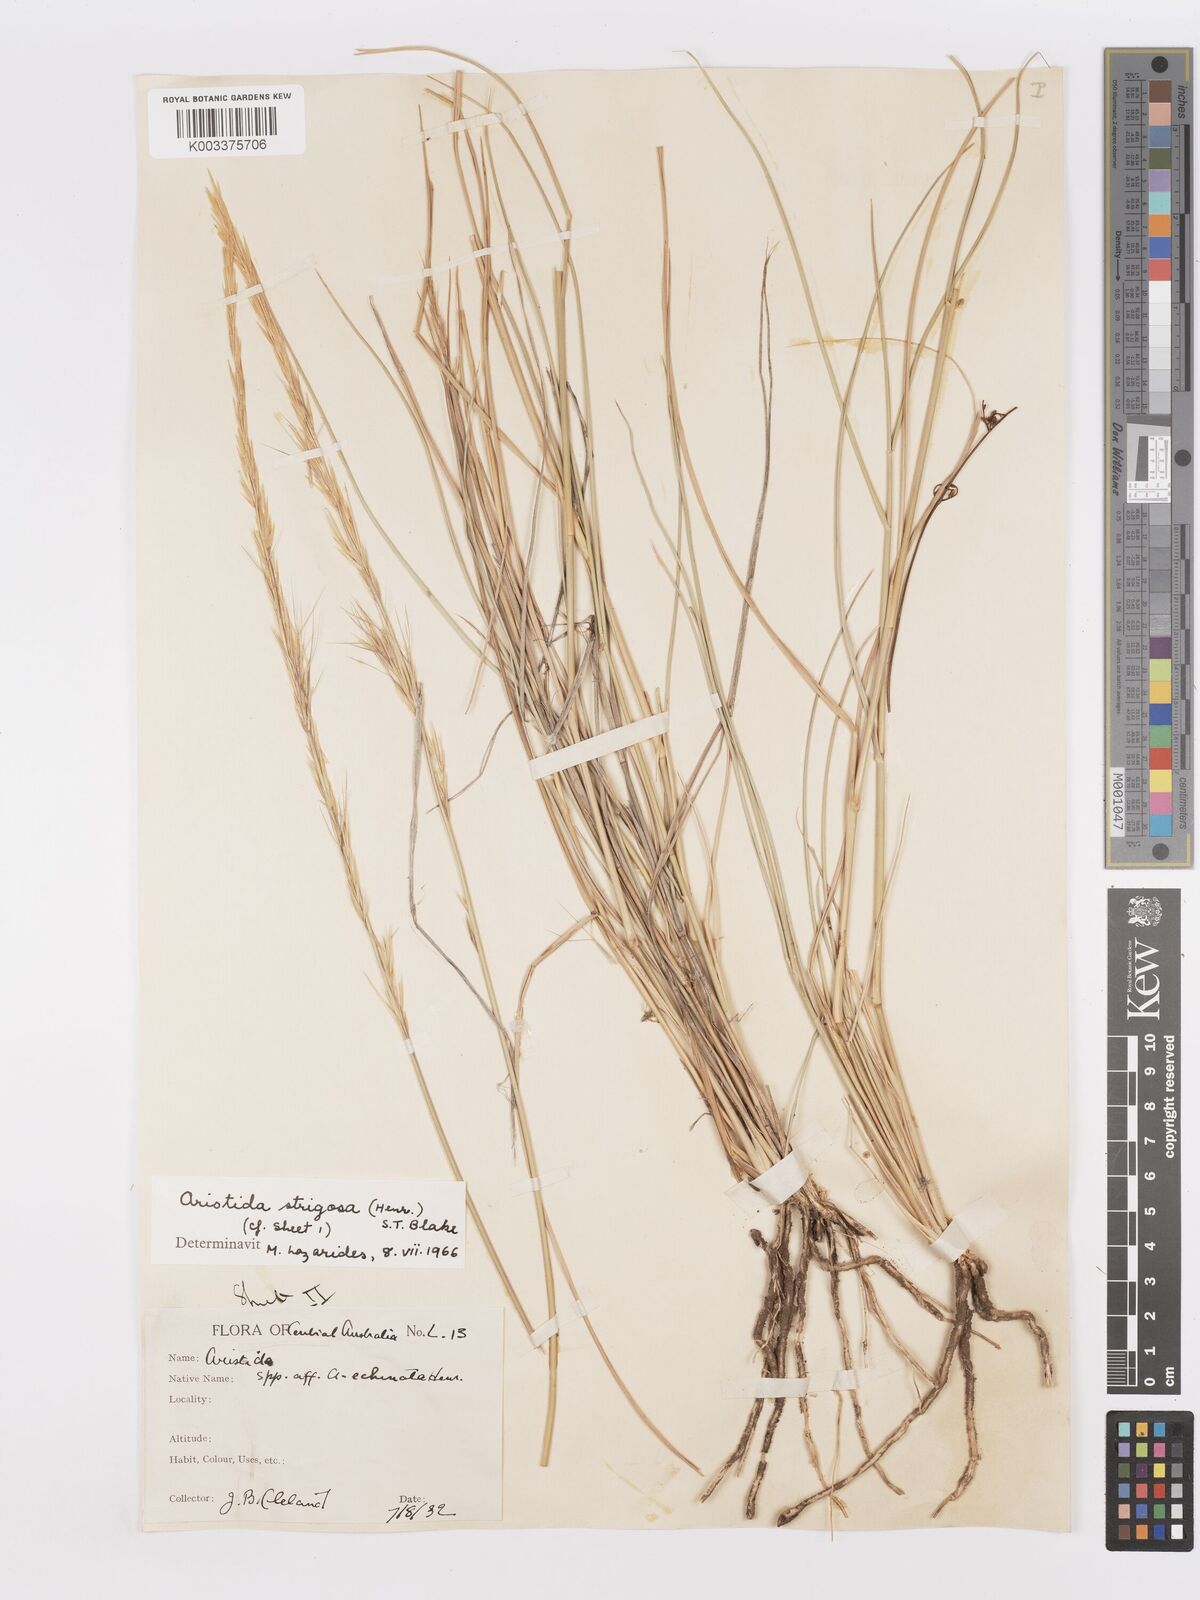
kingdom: Plantae
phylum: Tracheophyta
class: Liliopsida
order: Poales
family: Poaceae
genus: Aristida
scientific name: Aristida strigosa
